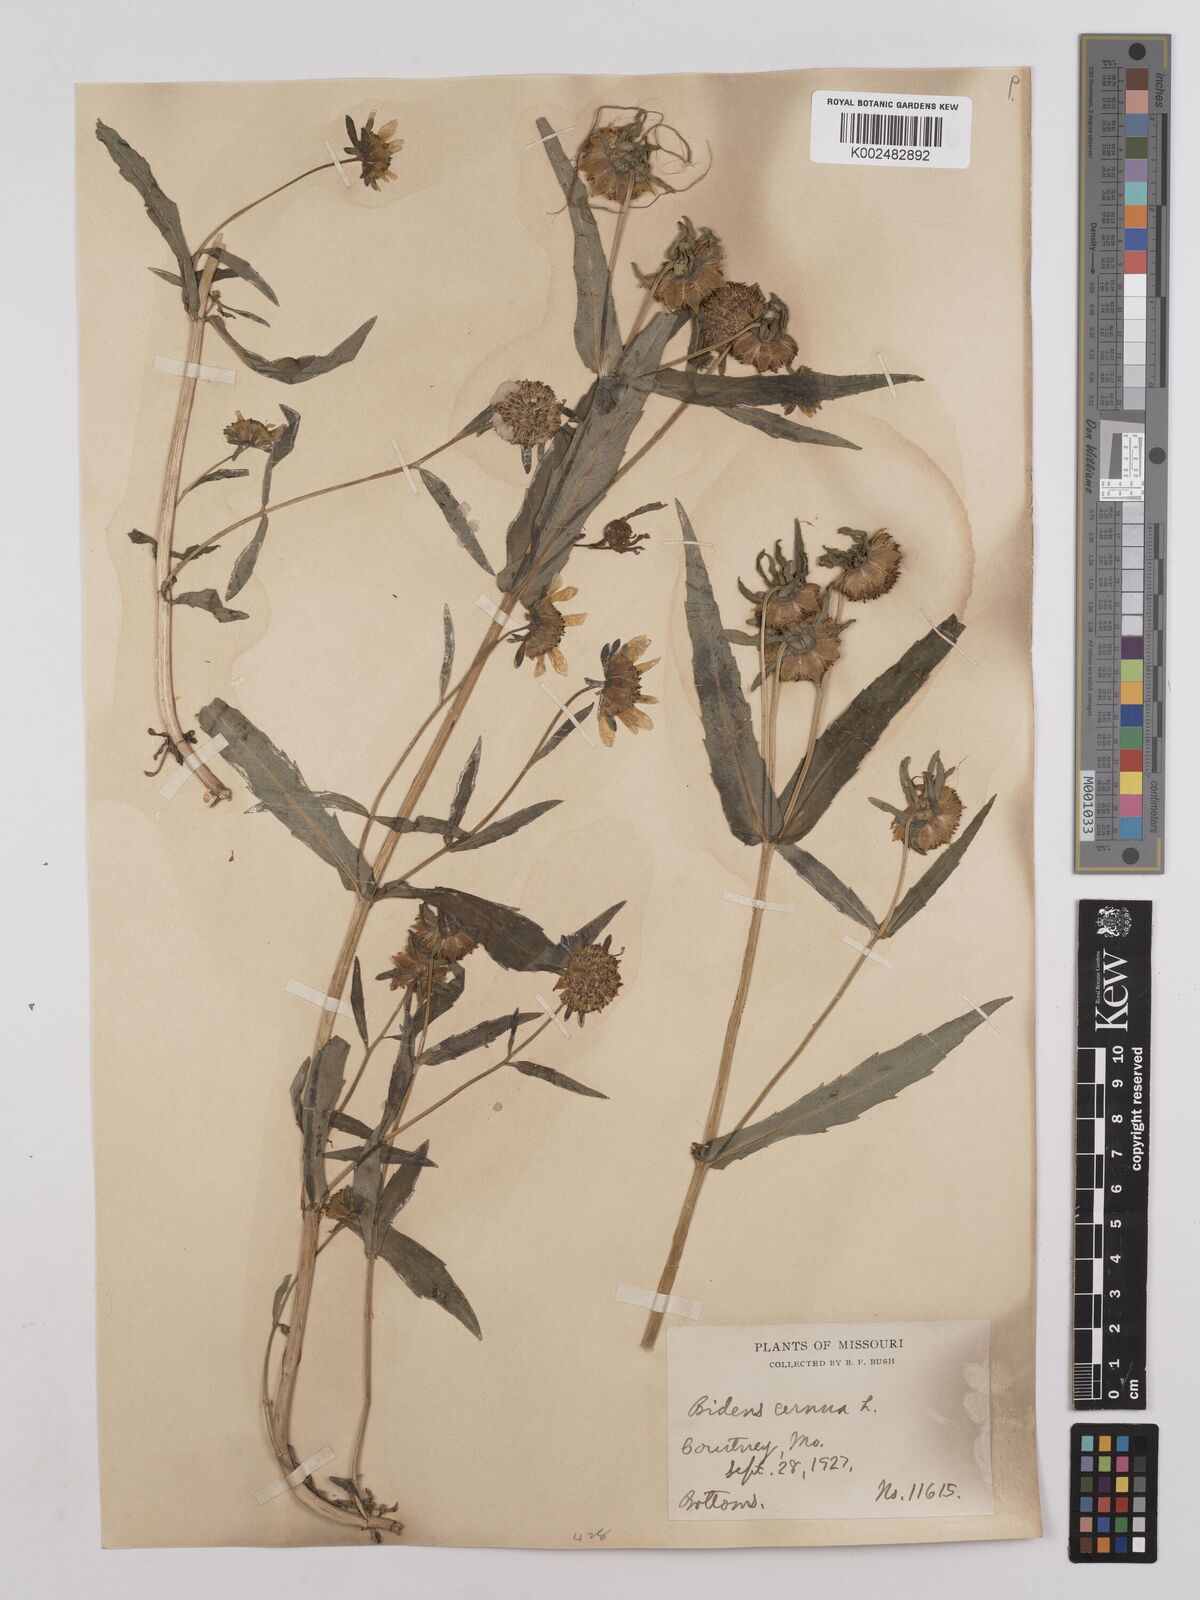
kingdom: Plantae
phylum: Tracheophyta
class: Magnoliopsida
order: Asterales
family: Asteraceae
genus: Bidens
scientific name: Bidens
